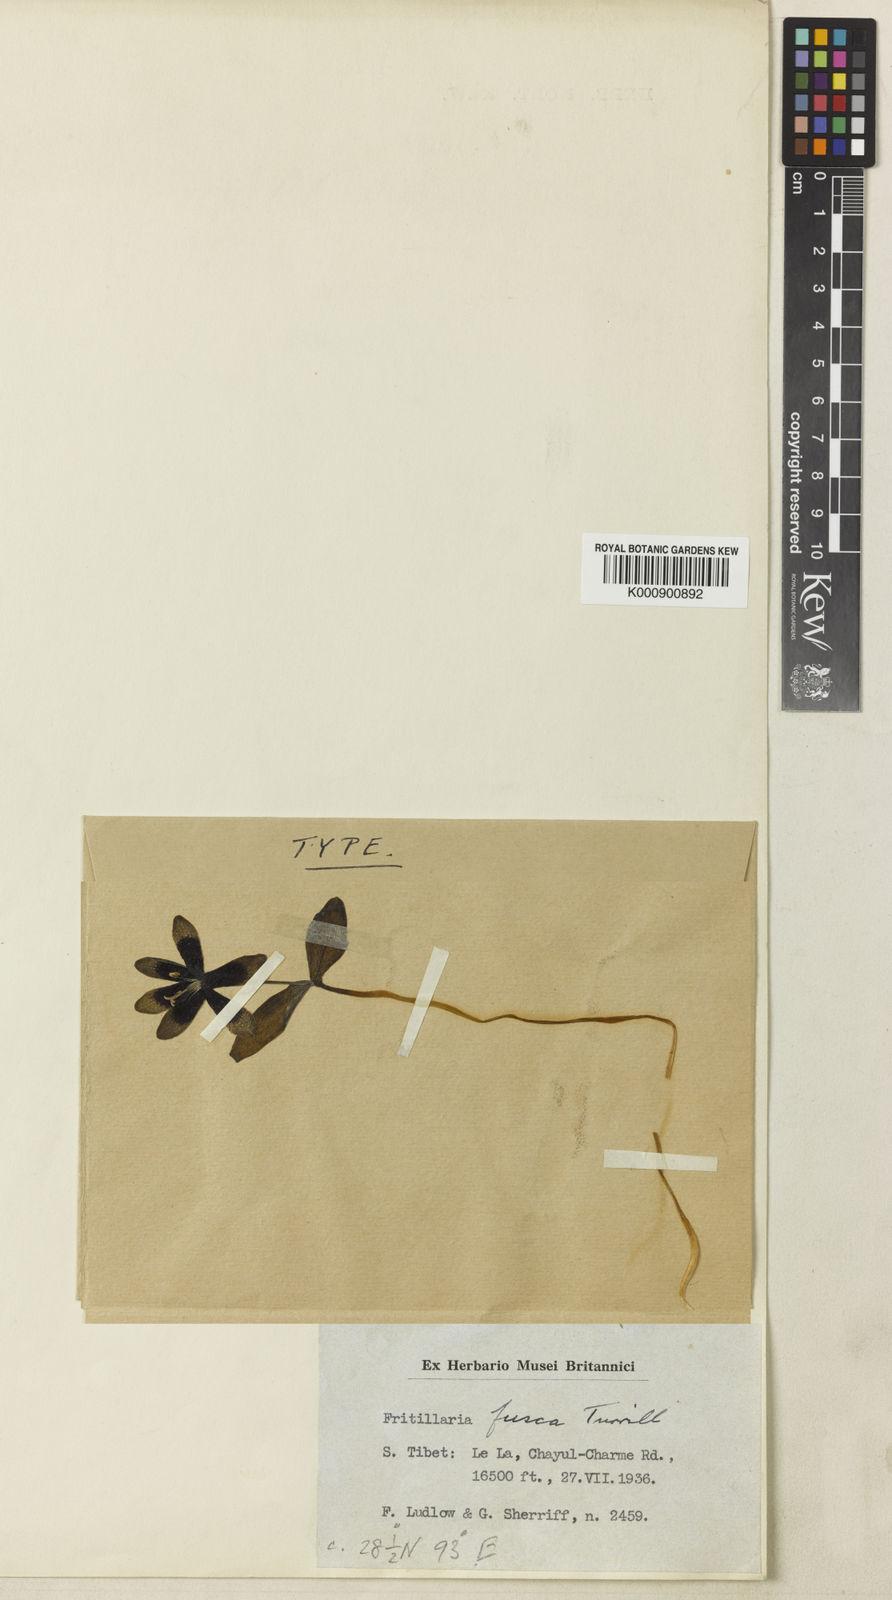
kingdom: Plantae
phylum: Tracheophyta
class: Liliopsida
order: Liliales
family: Liliaceae
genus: Fritillaria
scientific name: Fritillaria fusca
